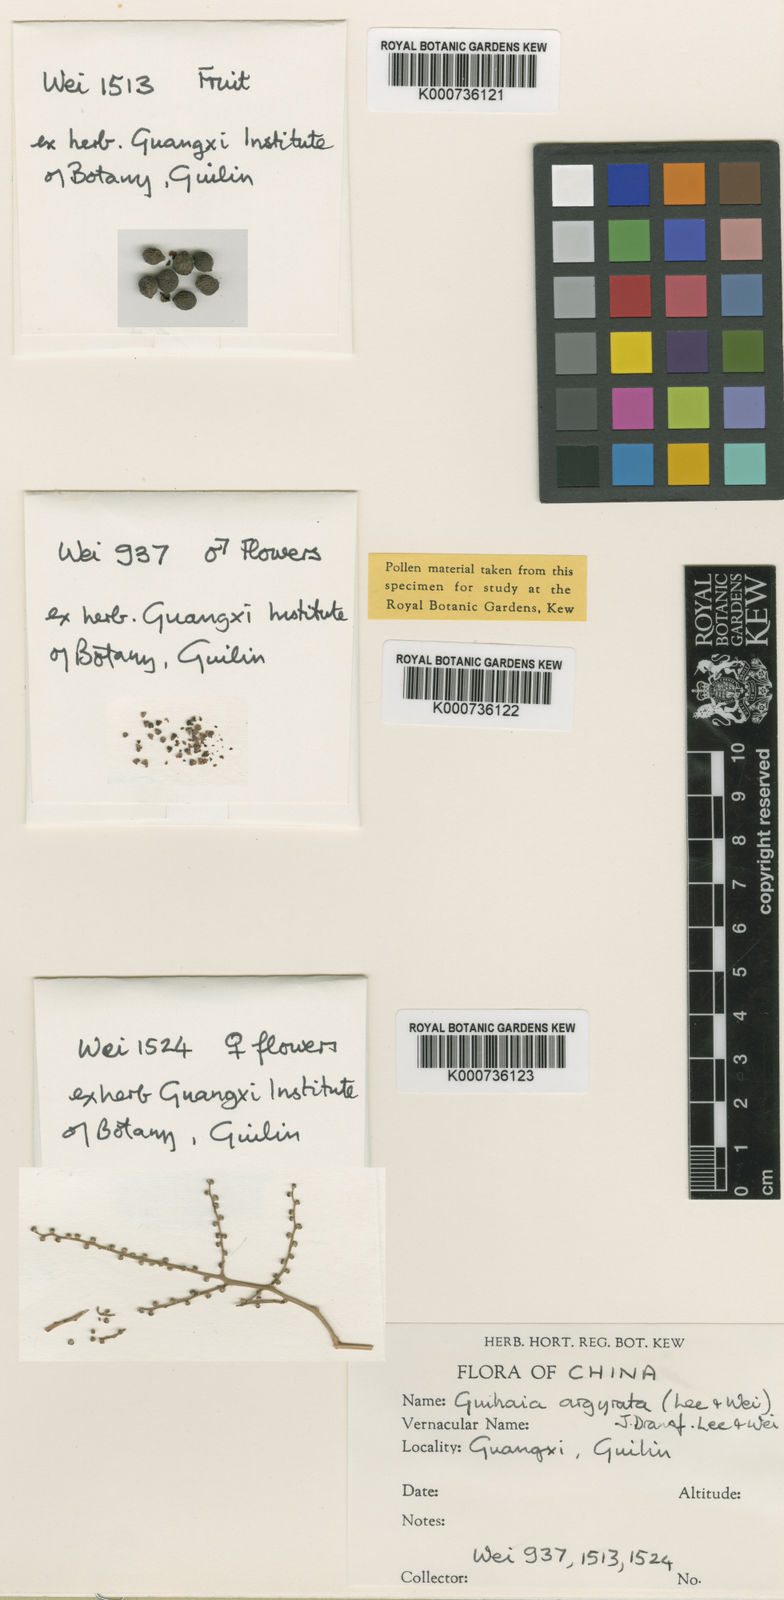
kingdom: Plantae
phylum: Tracheophyta
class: Liliopsida
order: Arecales
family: Arecaceae
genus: Guihaia
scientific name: Guihaia
